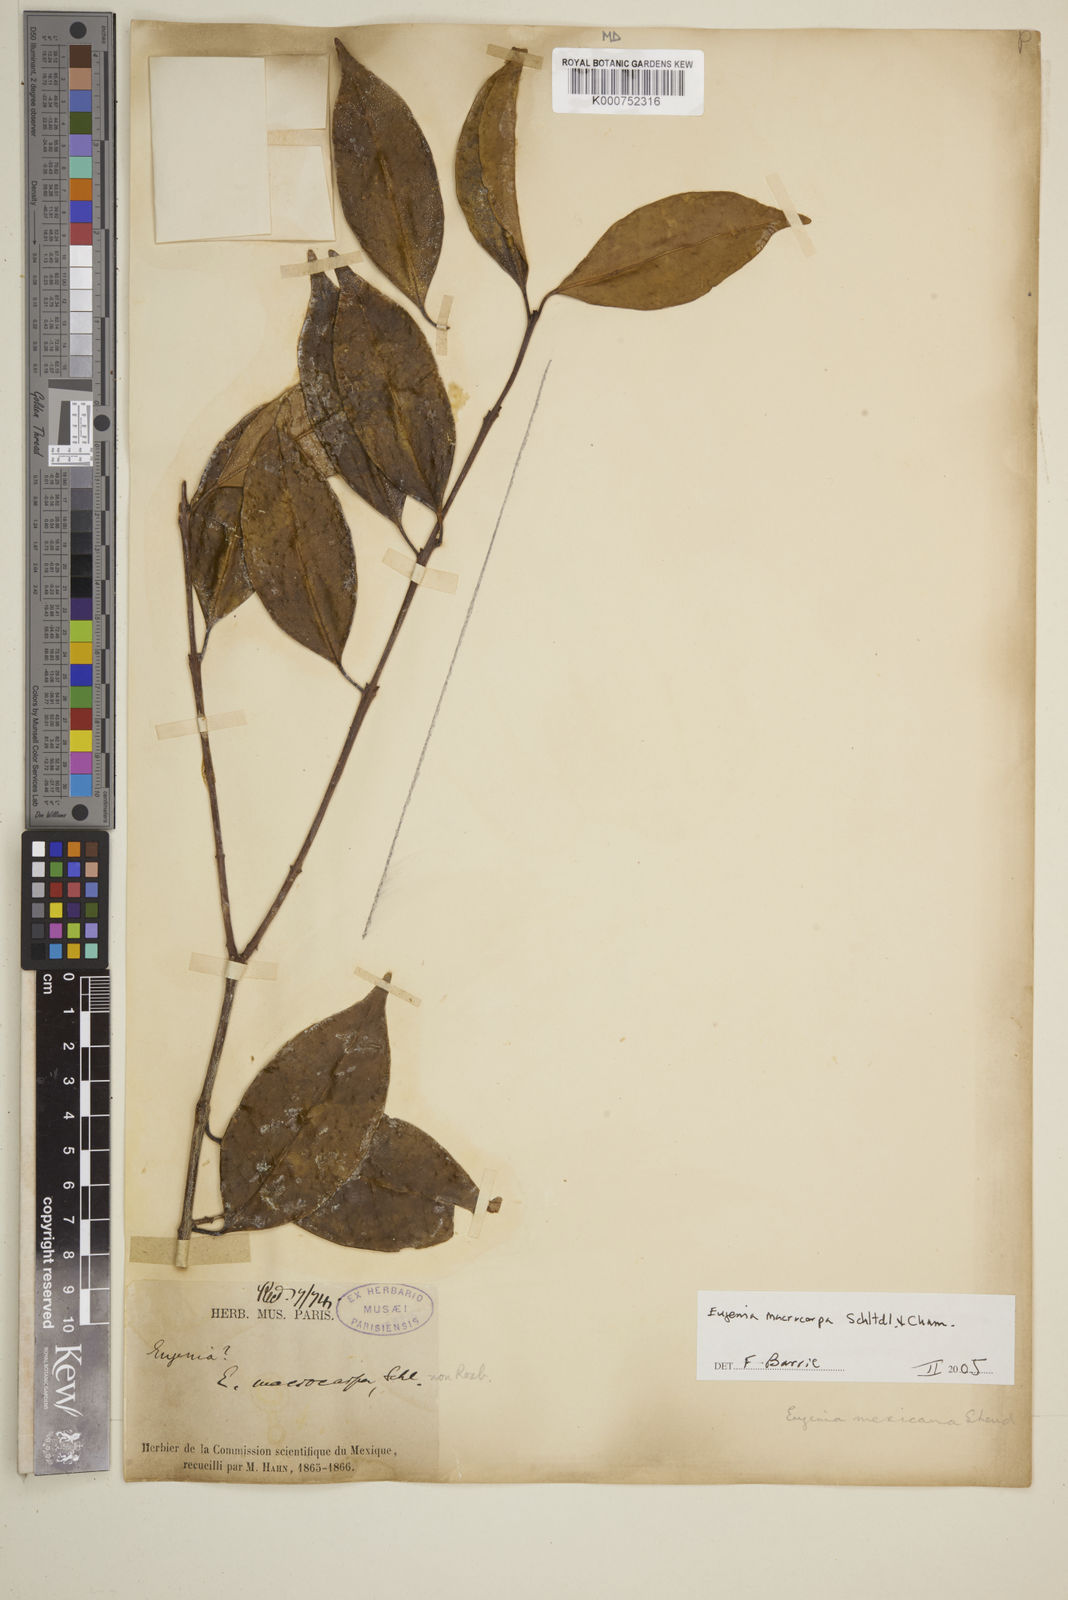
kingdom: Plantae
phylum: Tracheophyta
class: Magnoliopsida
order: Myrtales
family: Myrtaceae
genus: Eugenia
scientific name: Eugenia macrocarpa
